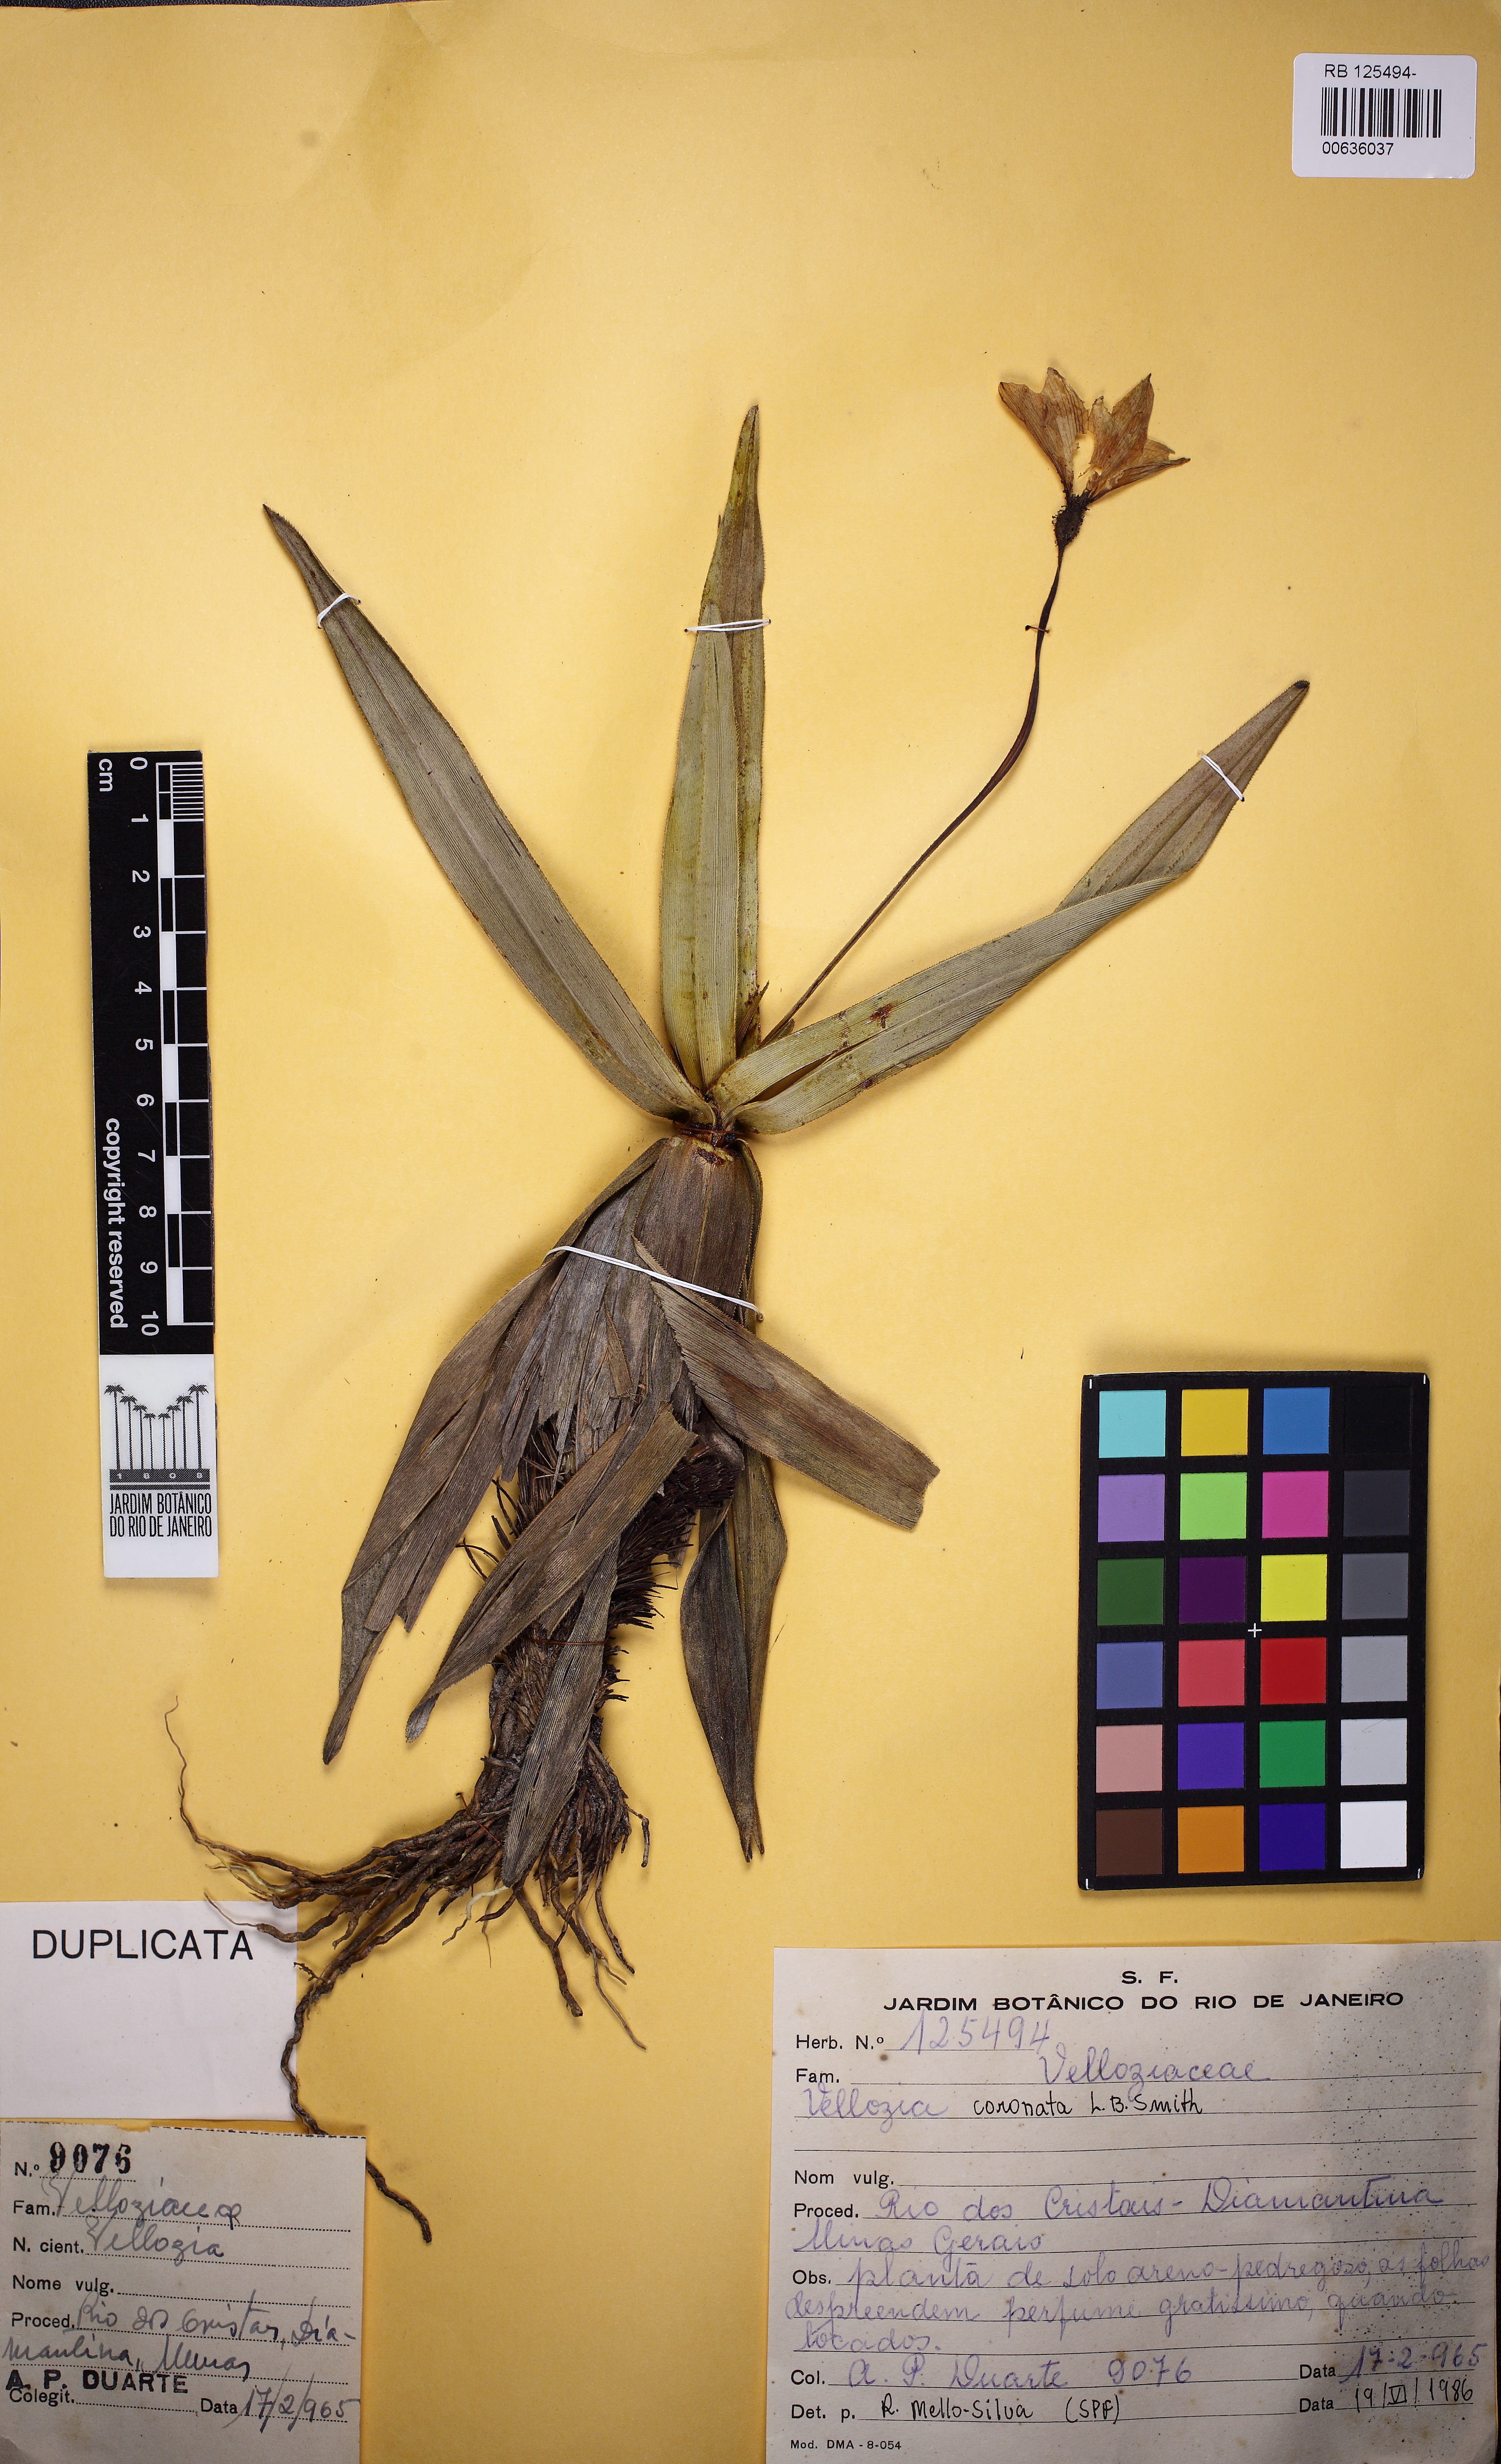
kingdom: Plantae
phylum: Tracheophyta
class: Liliopsida
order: Pandanales
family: Velloziaceae
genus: Vellozia
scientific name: Vellozia coronata
